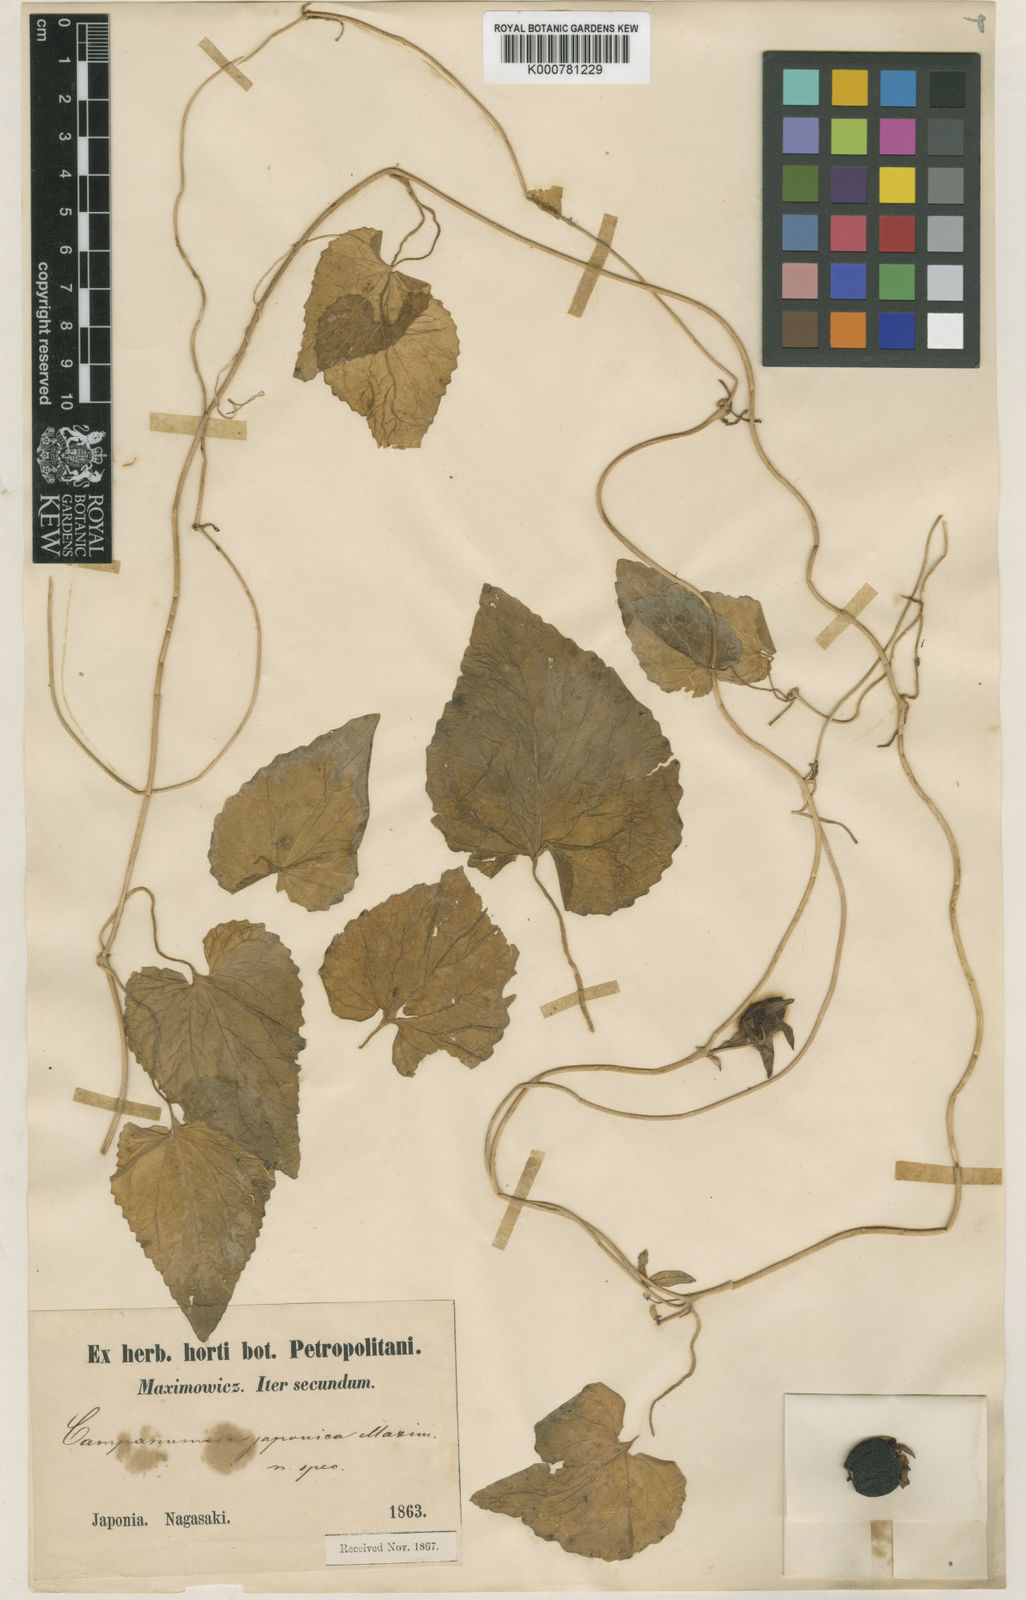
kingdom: Plantae
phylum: Tracheophyta
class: Magnoliopsida
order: Asterales
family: Campanulaceae
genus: Codonopsis
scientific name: Codonopsis javanica
